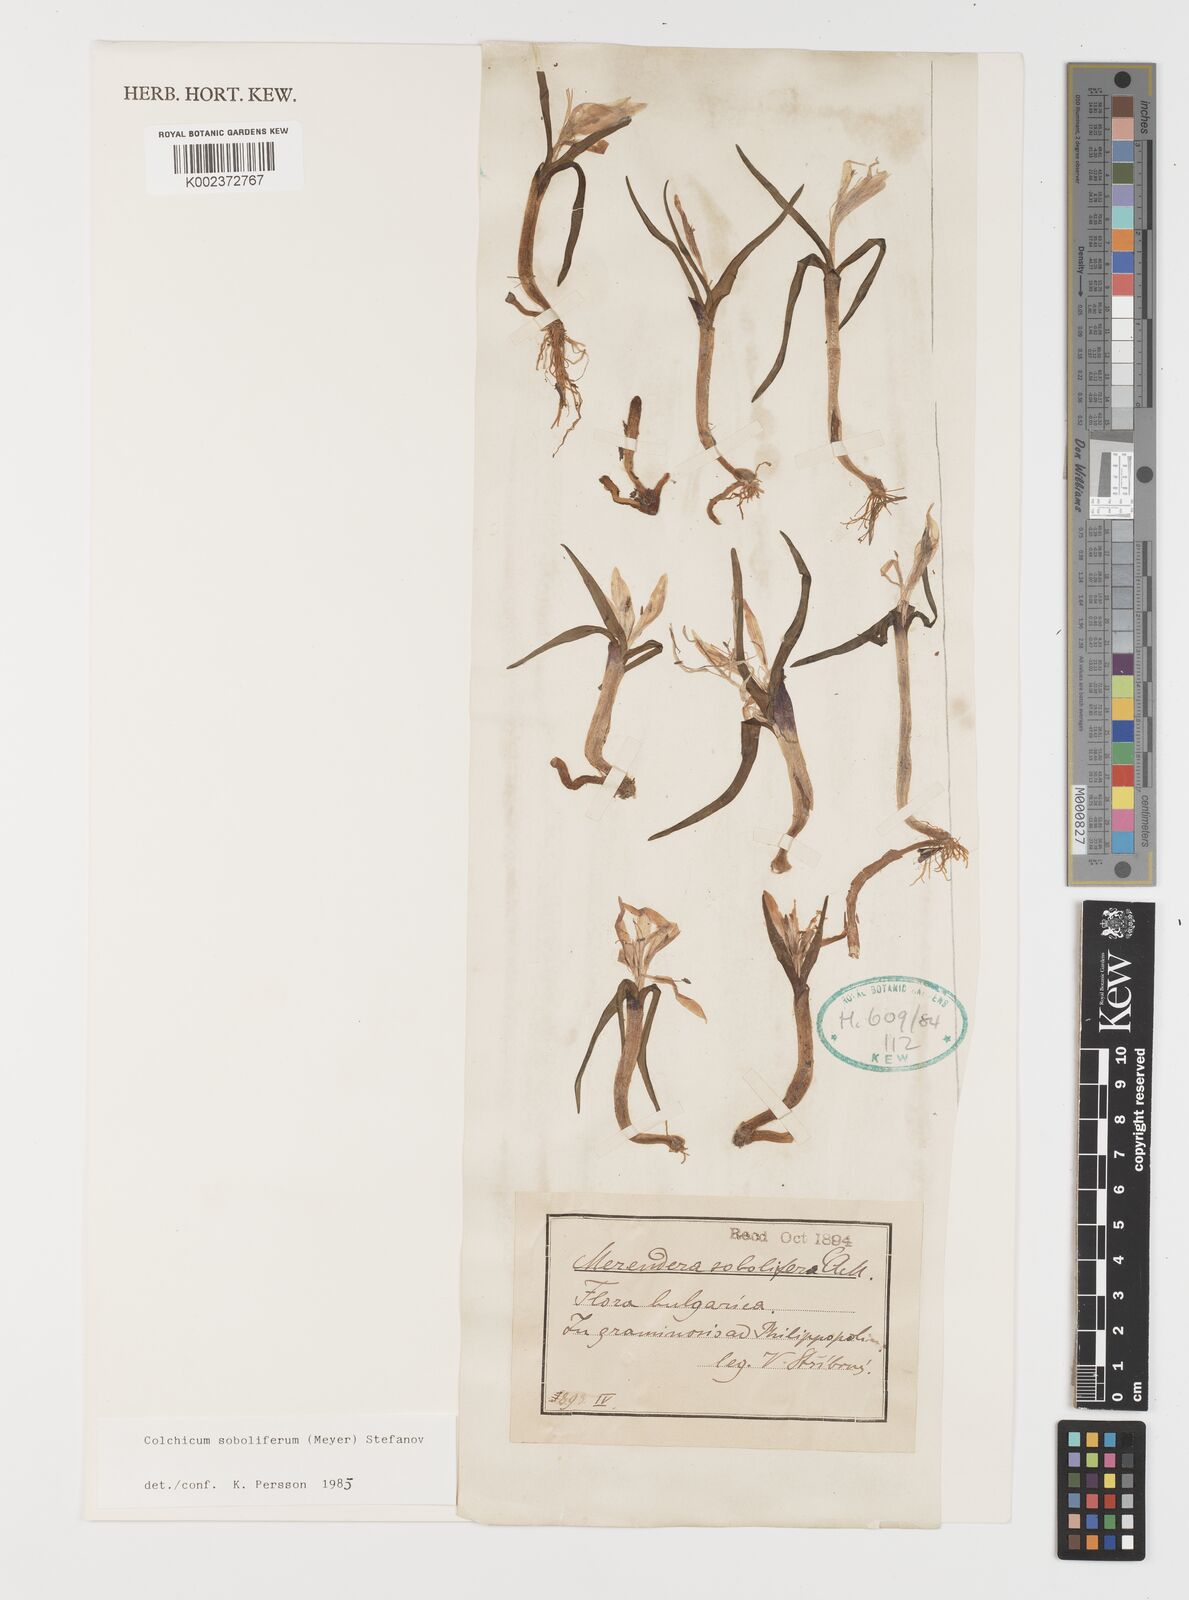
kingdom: Plantae
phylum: Tracheophyta
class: Liliopsida
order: Liliales
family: Colchicaceae
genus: Colchicum
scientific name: Colchicum soboliferum
